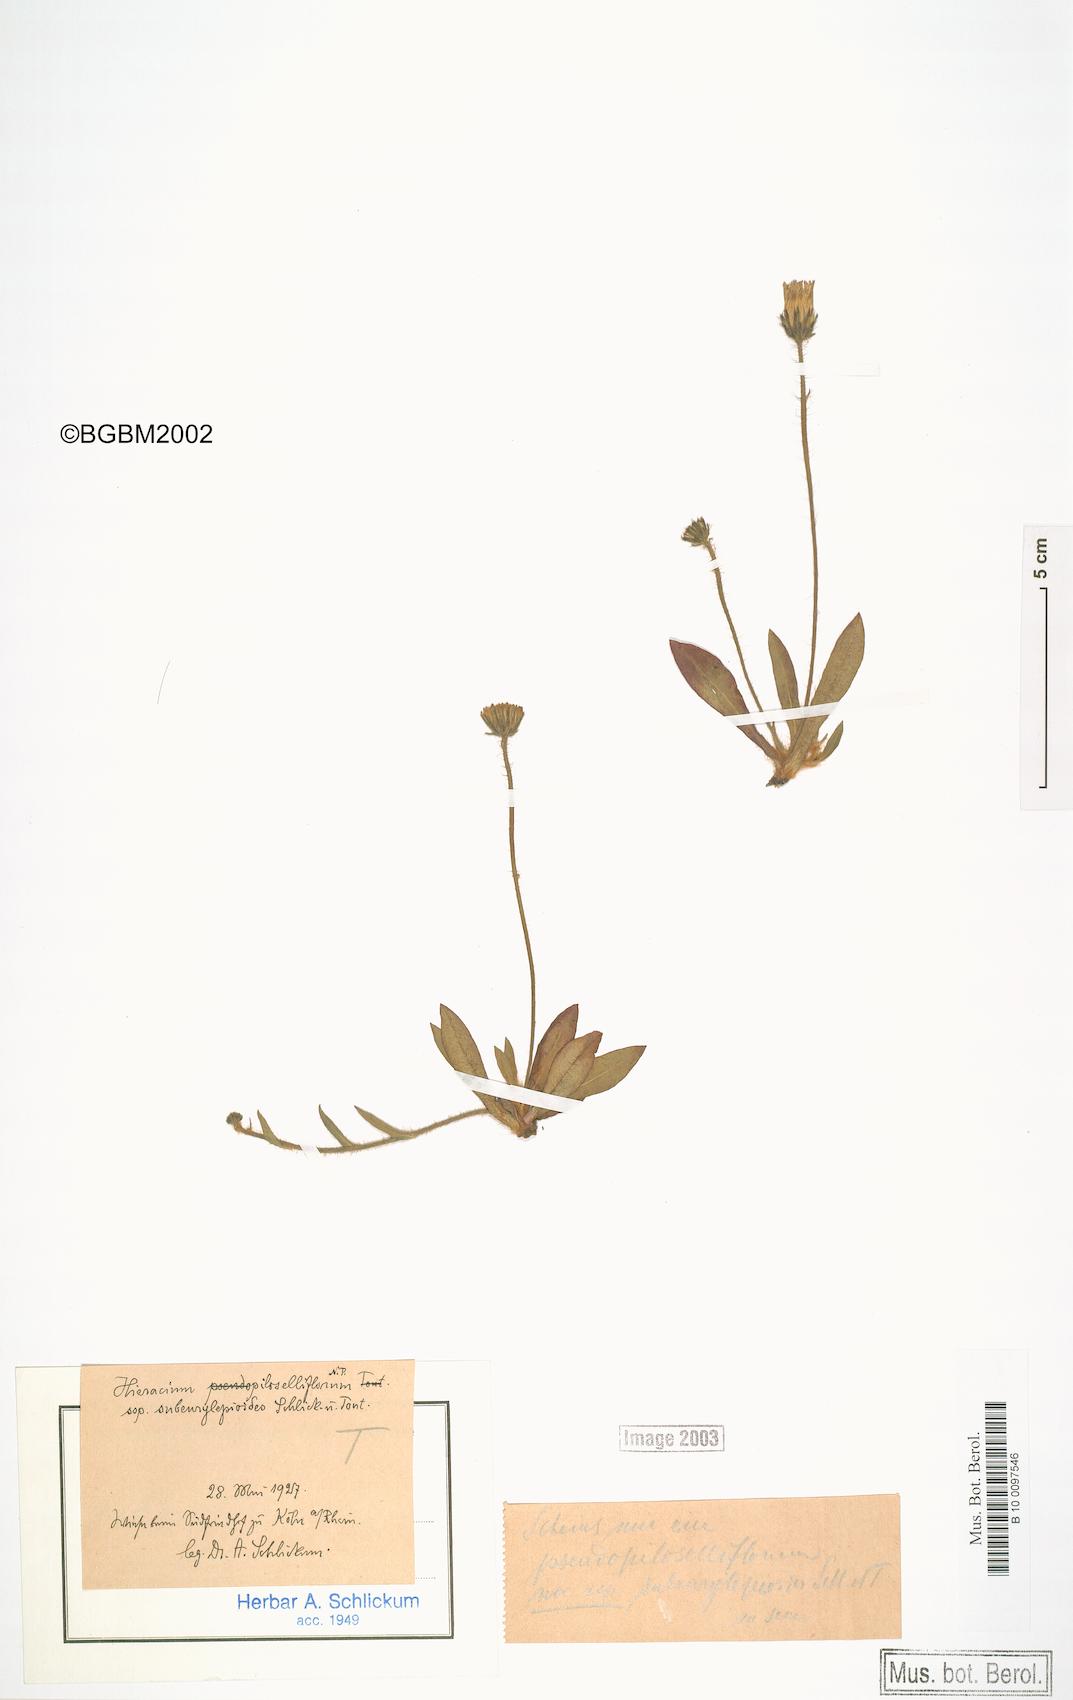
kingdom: Plantae
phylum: Tracheophyta
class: Magnoliopsida
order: Asterales
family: Asteraceae
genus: Pilosella
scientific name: Pilosella piloselliflora
